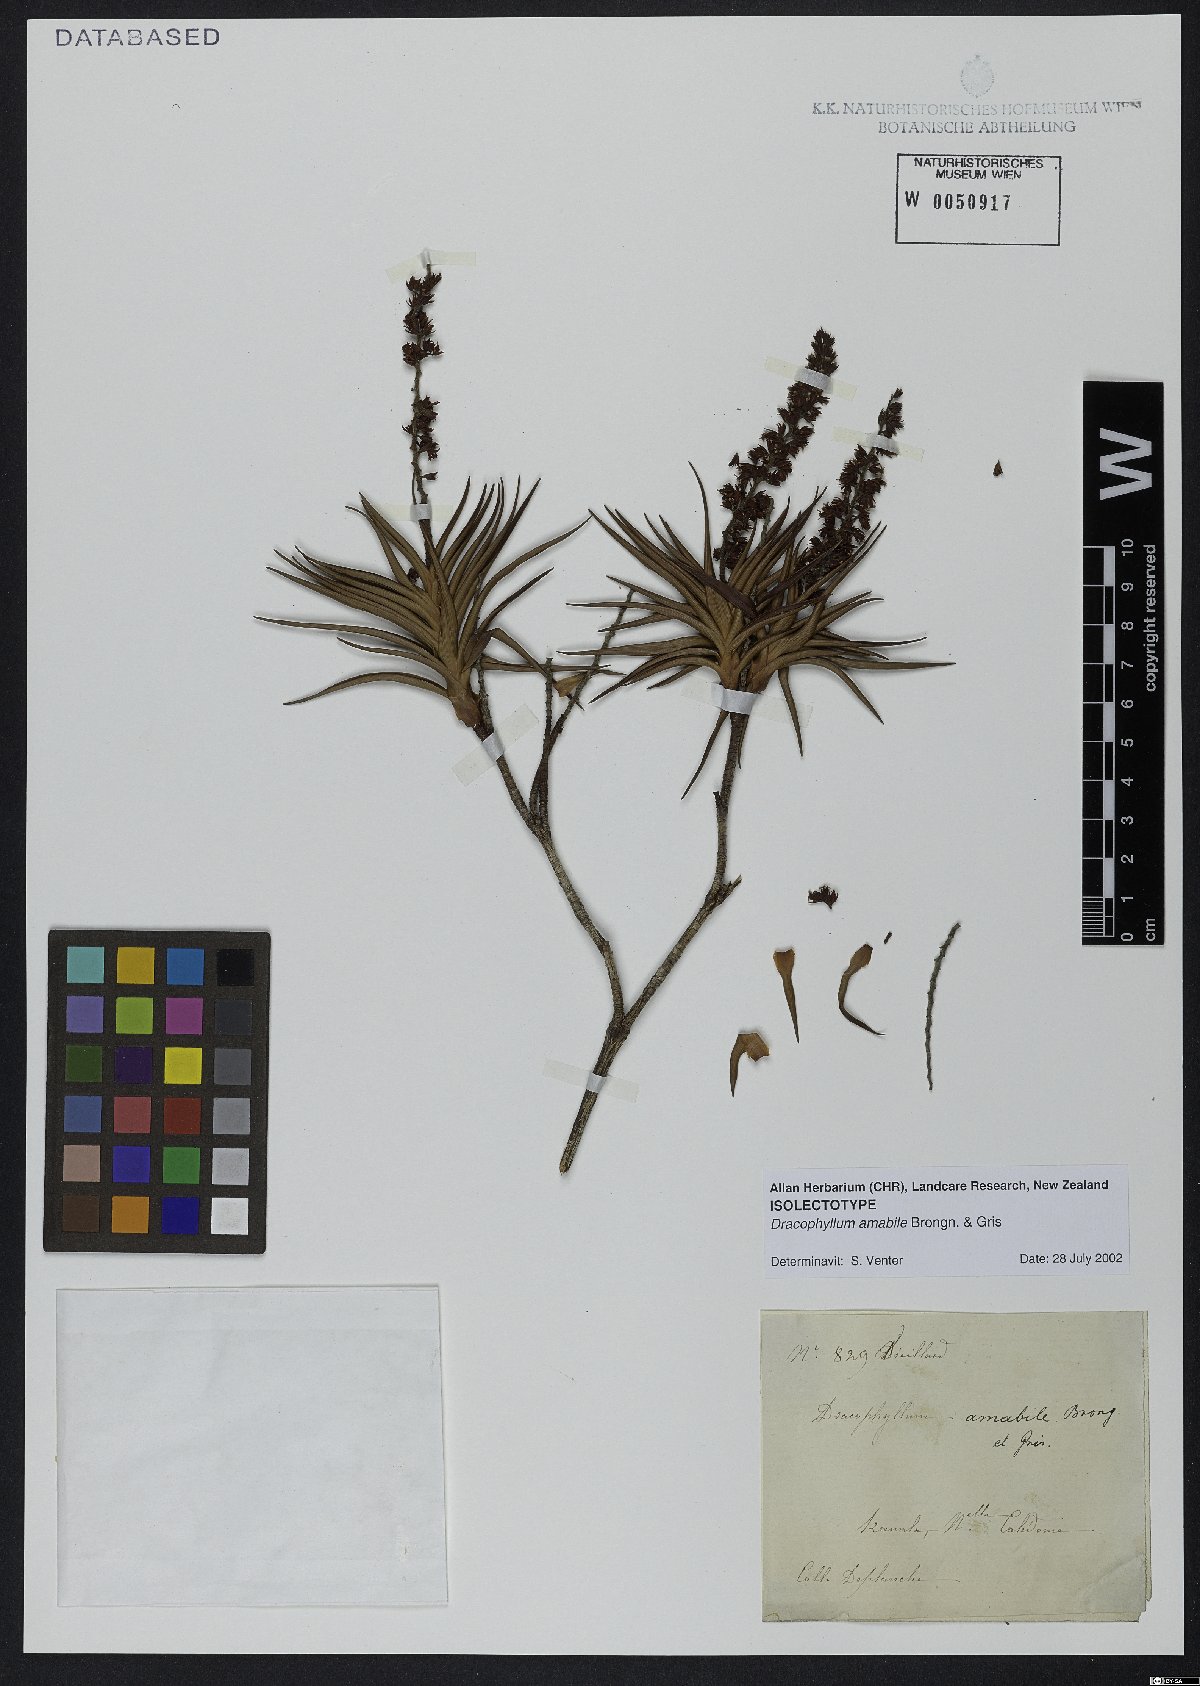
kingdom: Plantae
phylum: Tracheophyta
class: Magnoliopsida
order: Ericales
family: Ericaceae
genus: Dracophyllum
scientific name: Dracophyllum ramosum
